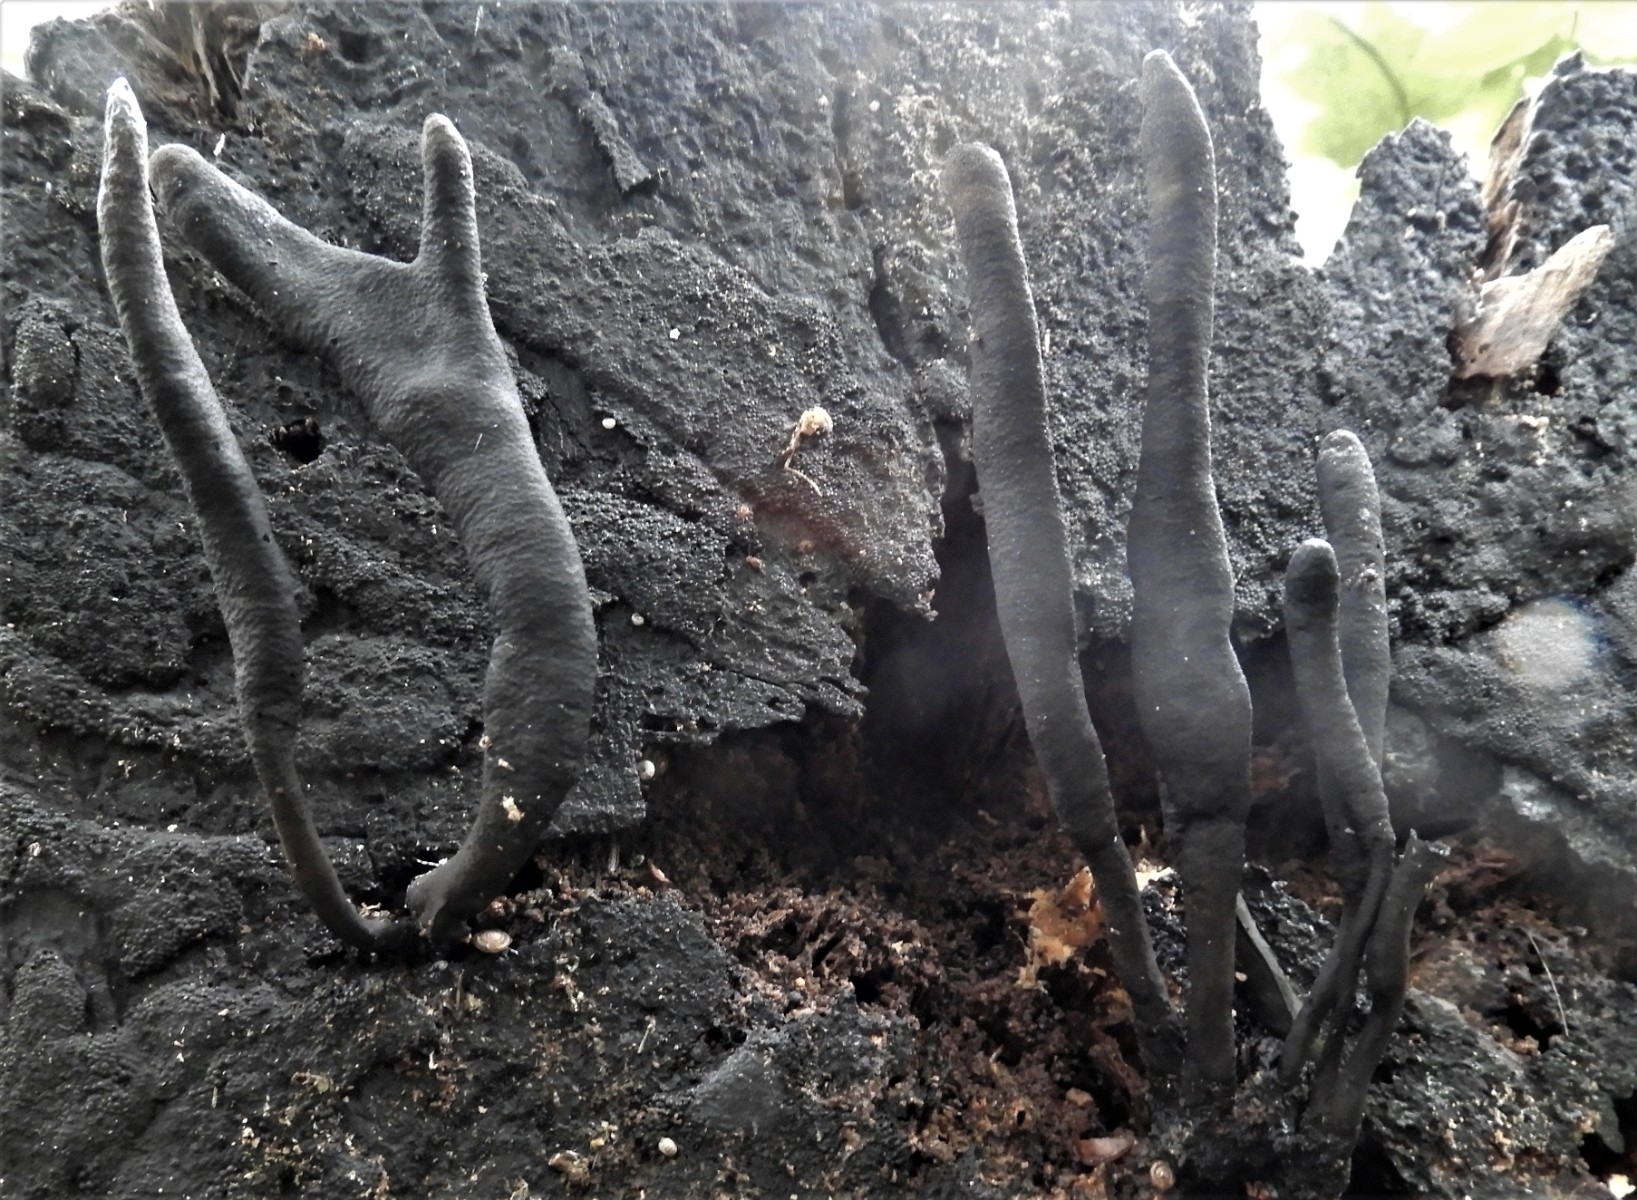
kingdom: Fungi
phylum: Ascomycota
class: Sordariomycetes
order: Xylariales
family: Xylariaceae
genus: Xylaria
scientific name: Xylaria longipes
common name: slank stødsvamp
